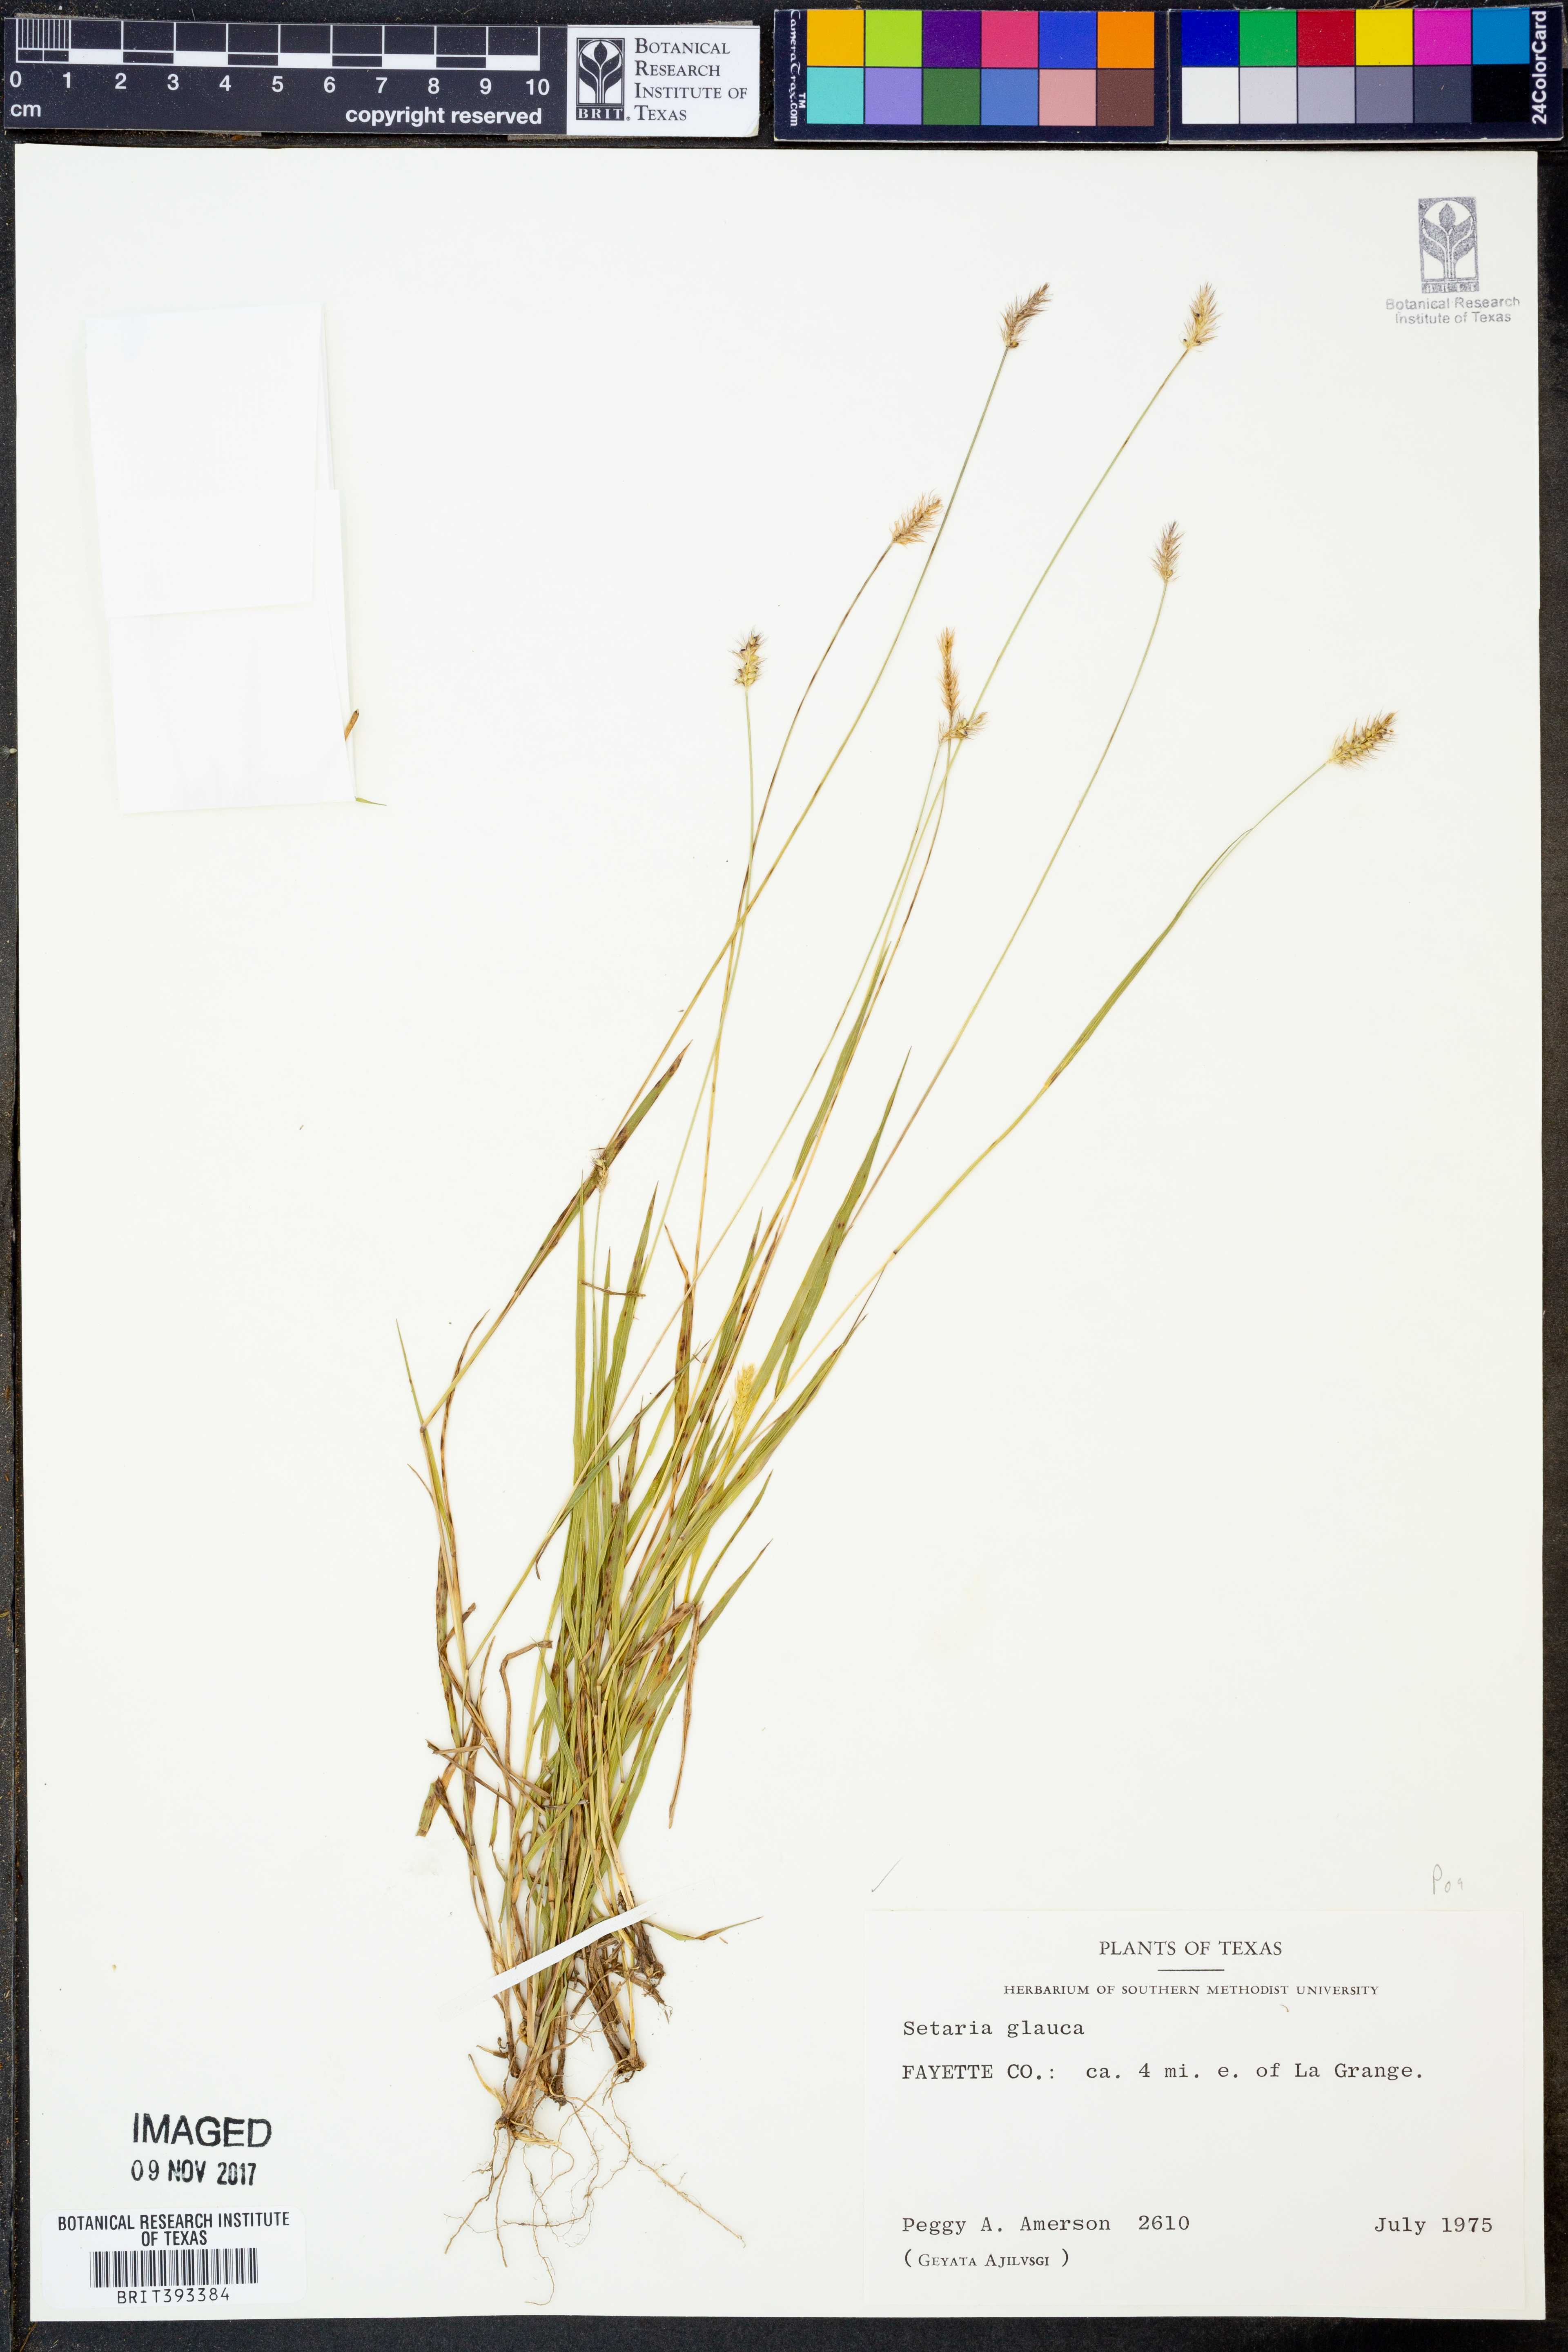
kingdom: Plantae
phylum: Tracheophyta
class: Liliopsida
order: Poales
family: Poaceae
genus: Cenchrus
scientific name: Cenchrus americanus
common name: Pearl millet
